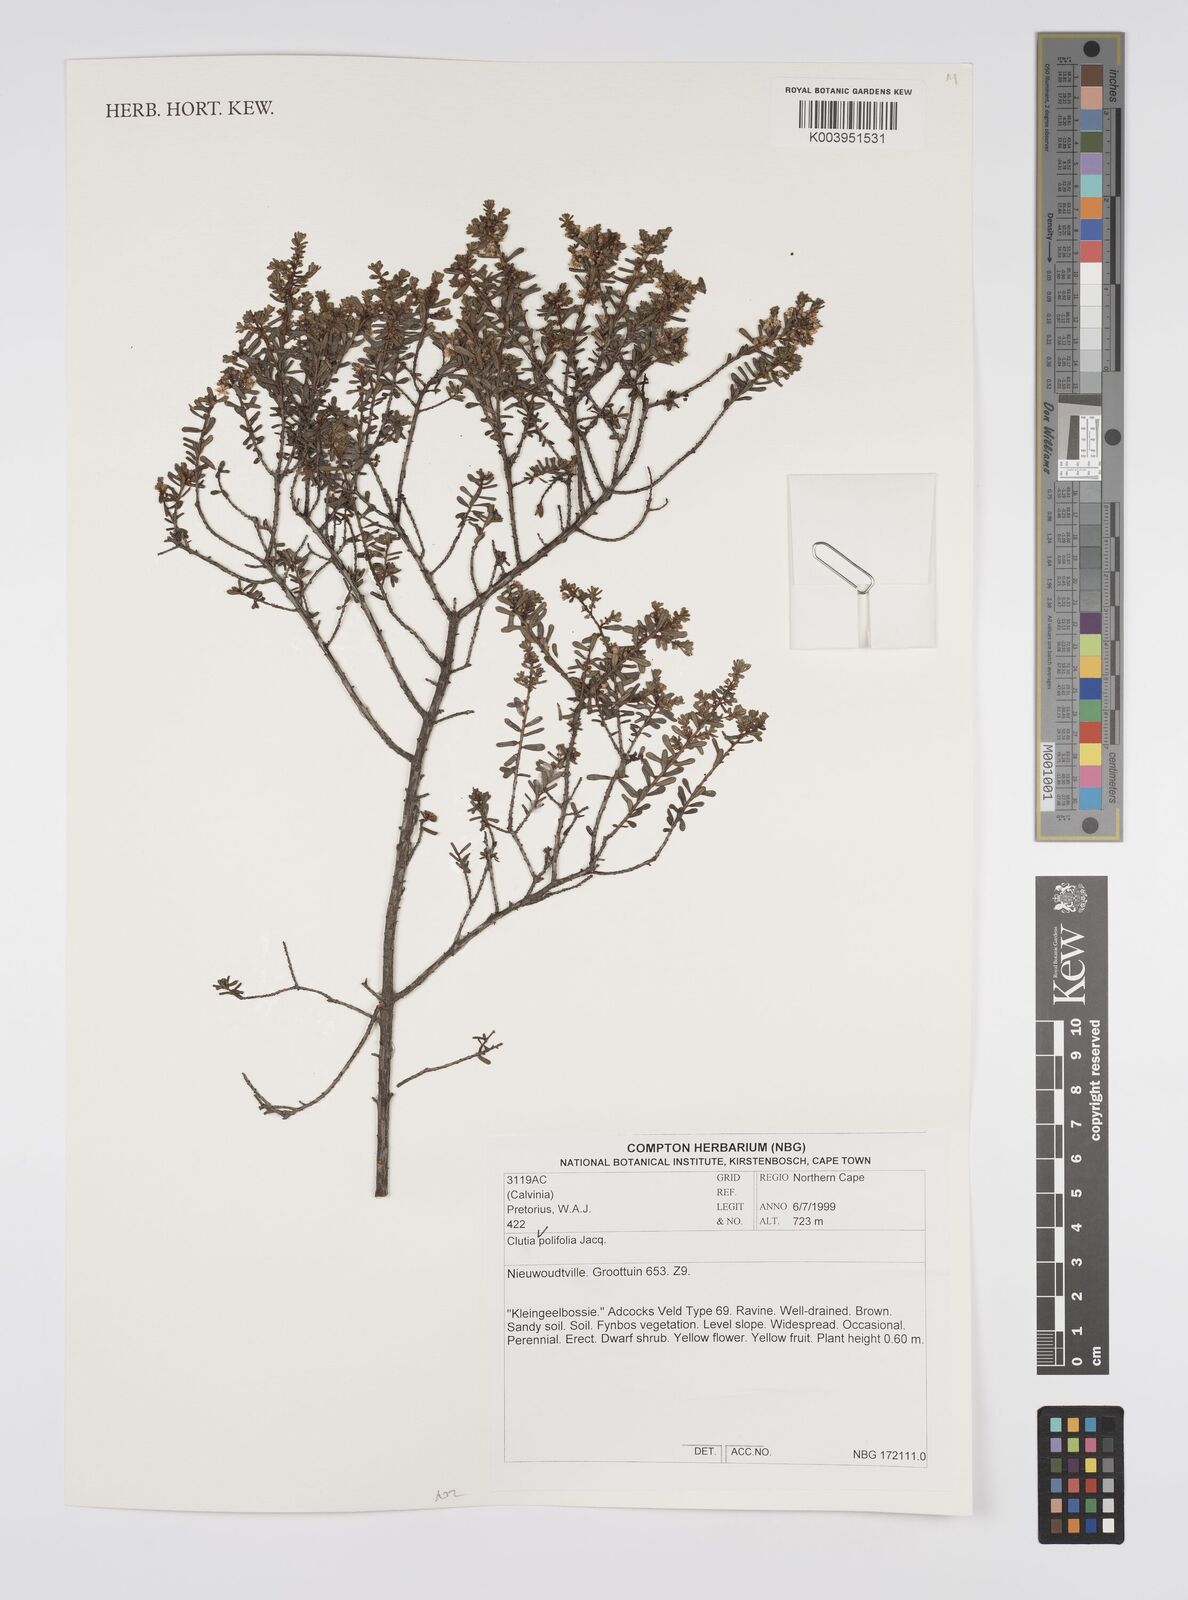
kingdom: Plantae
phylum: Tracheophyta
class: Magnoliopsida
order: Malpighiales
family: Peraceae
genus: Clutia
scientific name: Clutia
